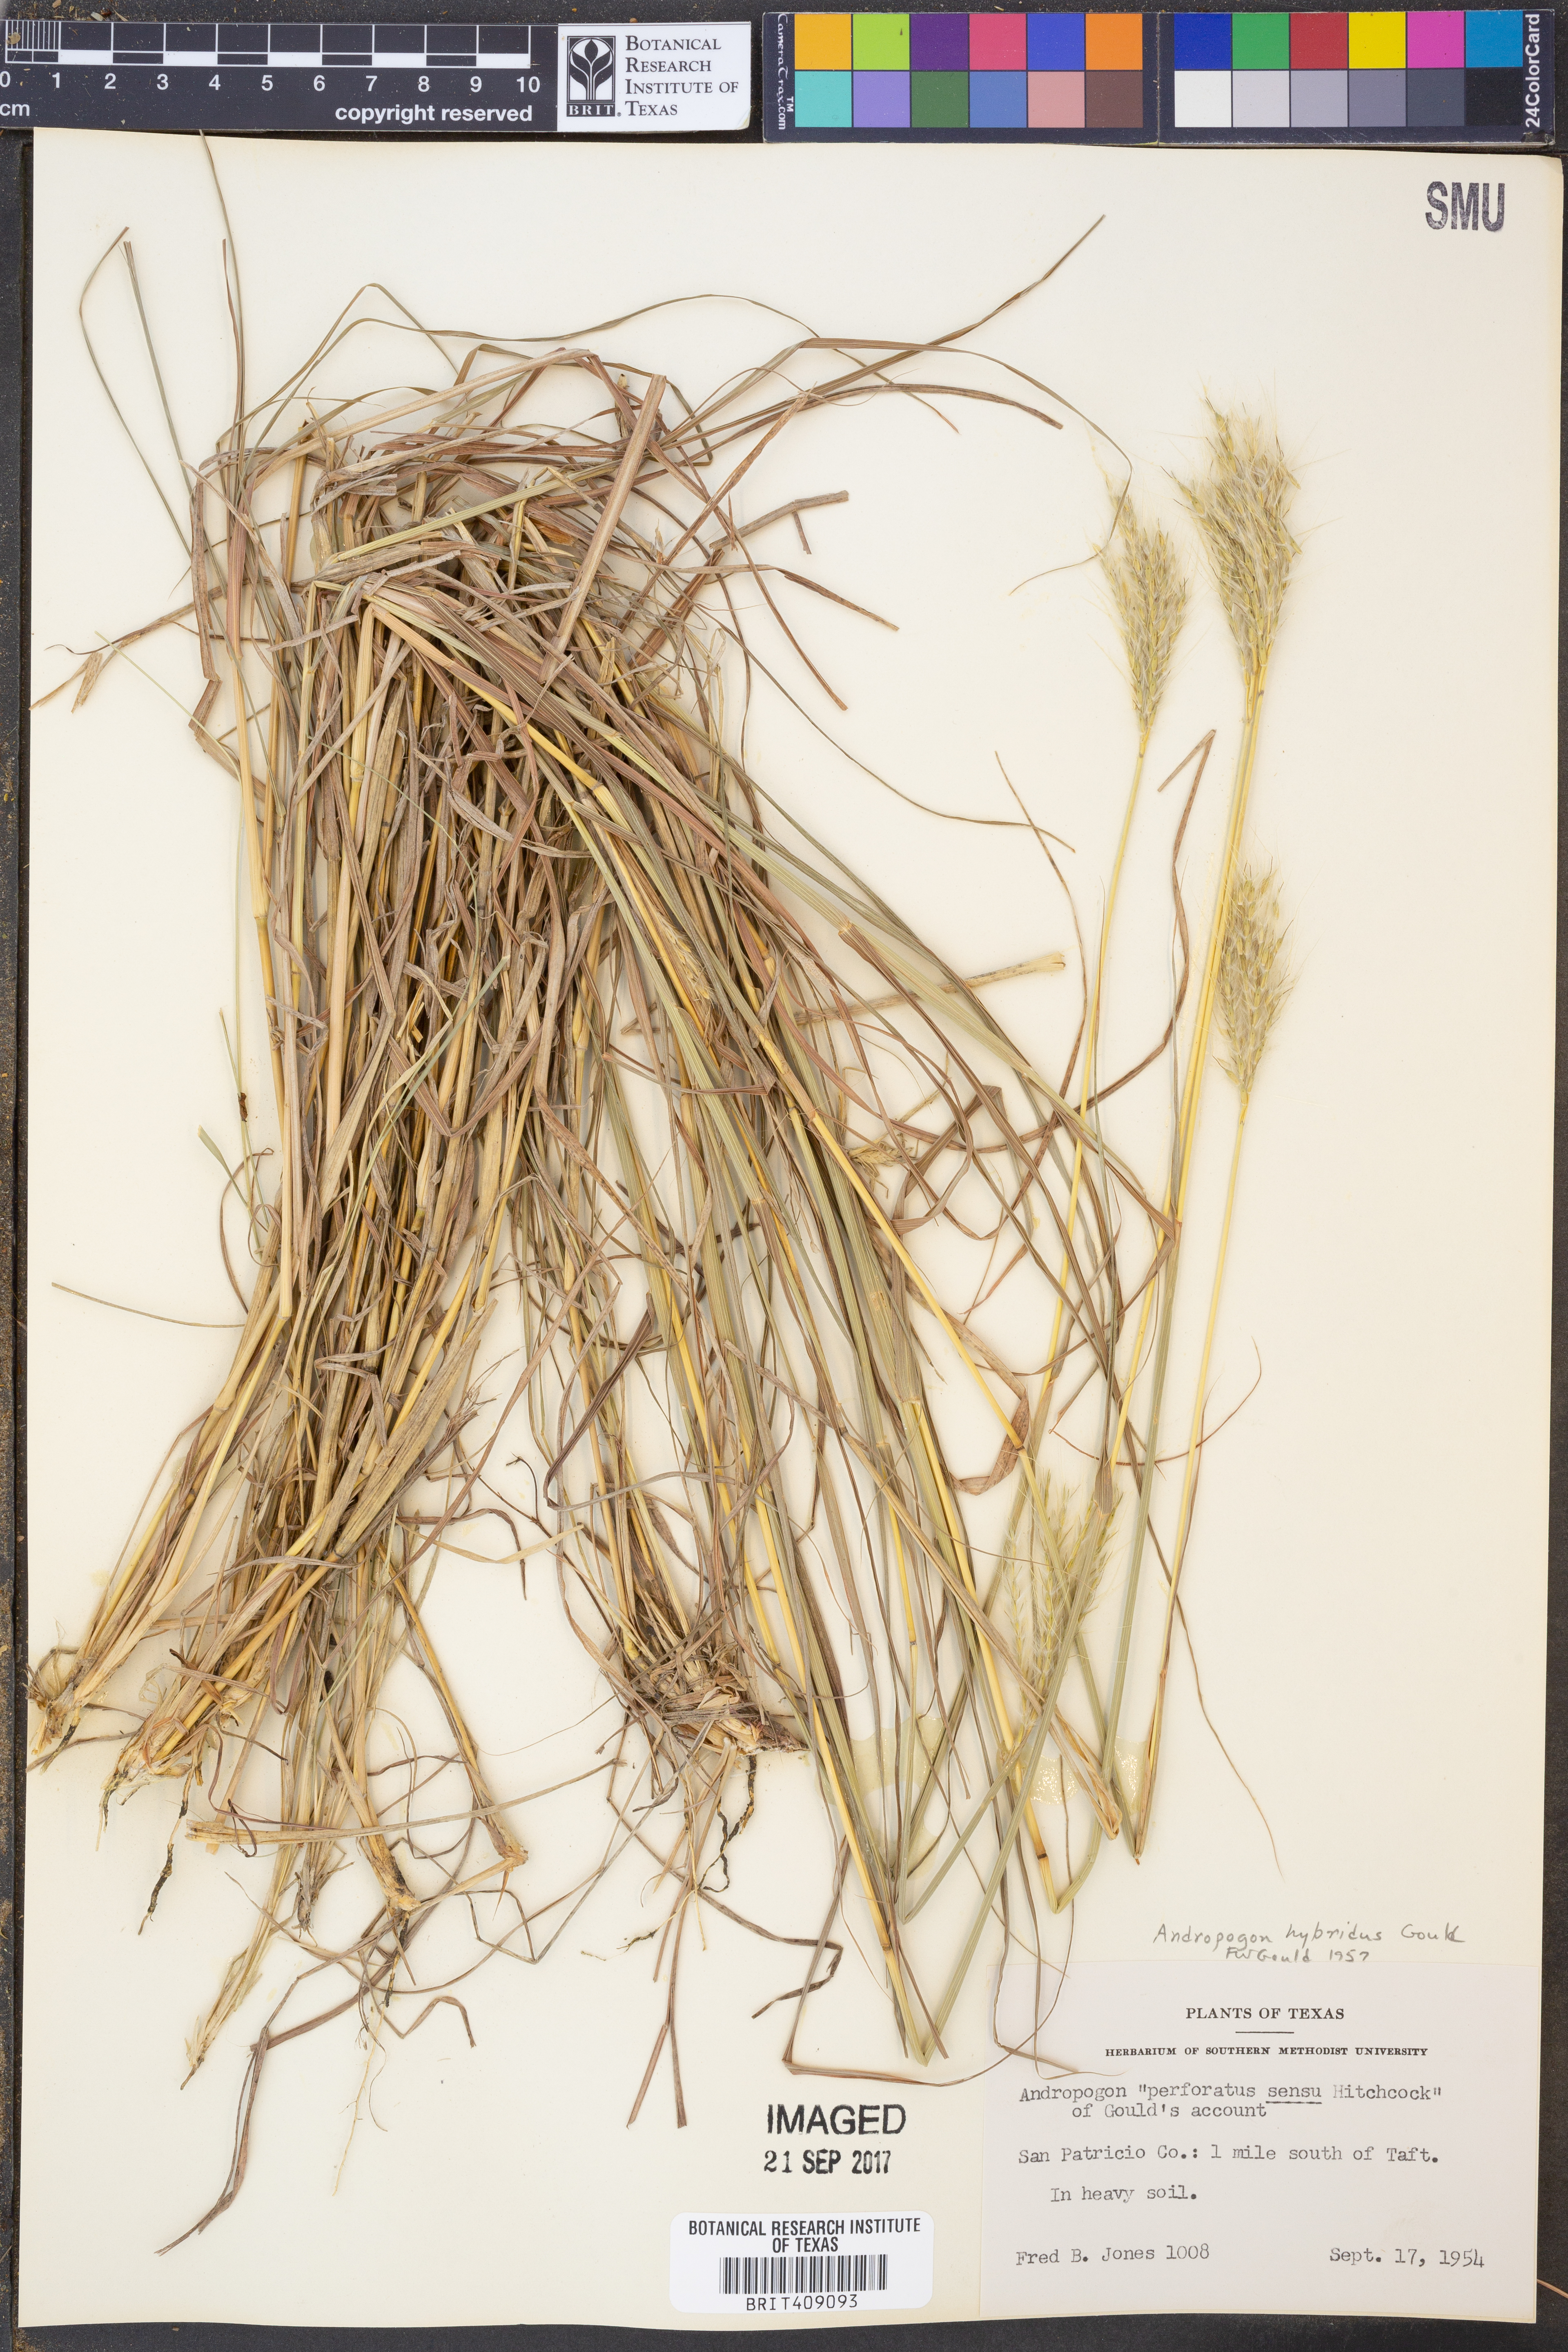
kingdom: Plantae
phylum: Tracheophyta
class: Liliopsida
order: Poales
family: Poaceae
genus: Bothriochloa
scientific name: Bothriochloa hybrida
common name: Hybrid bluestem
